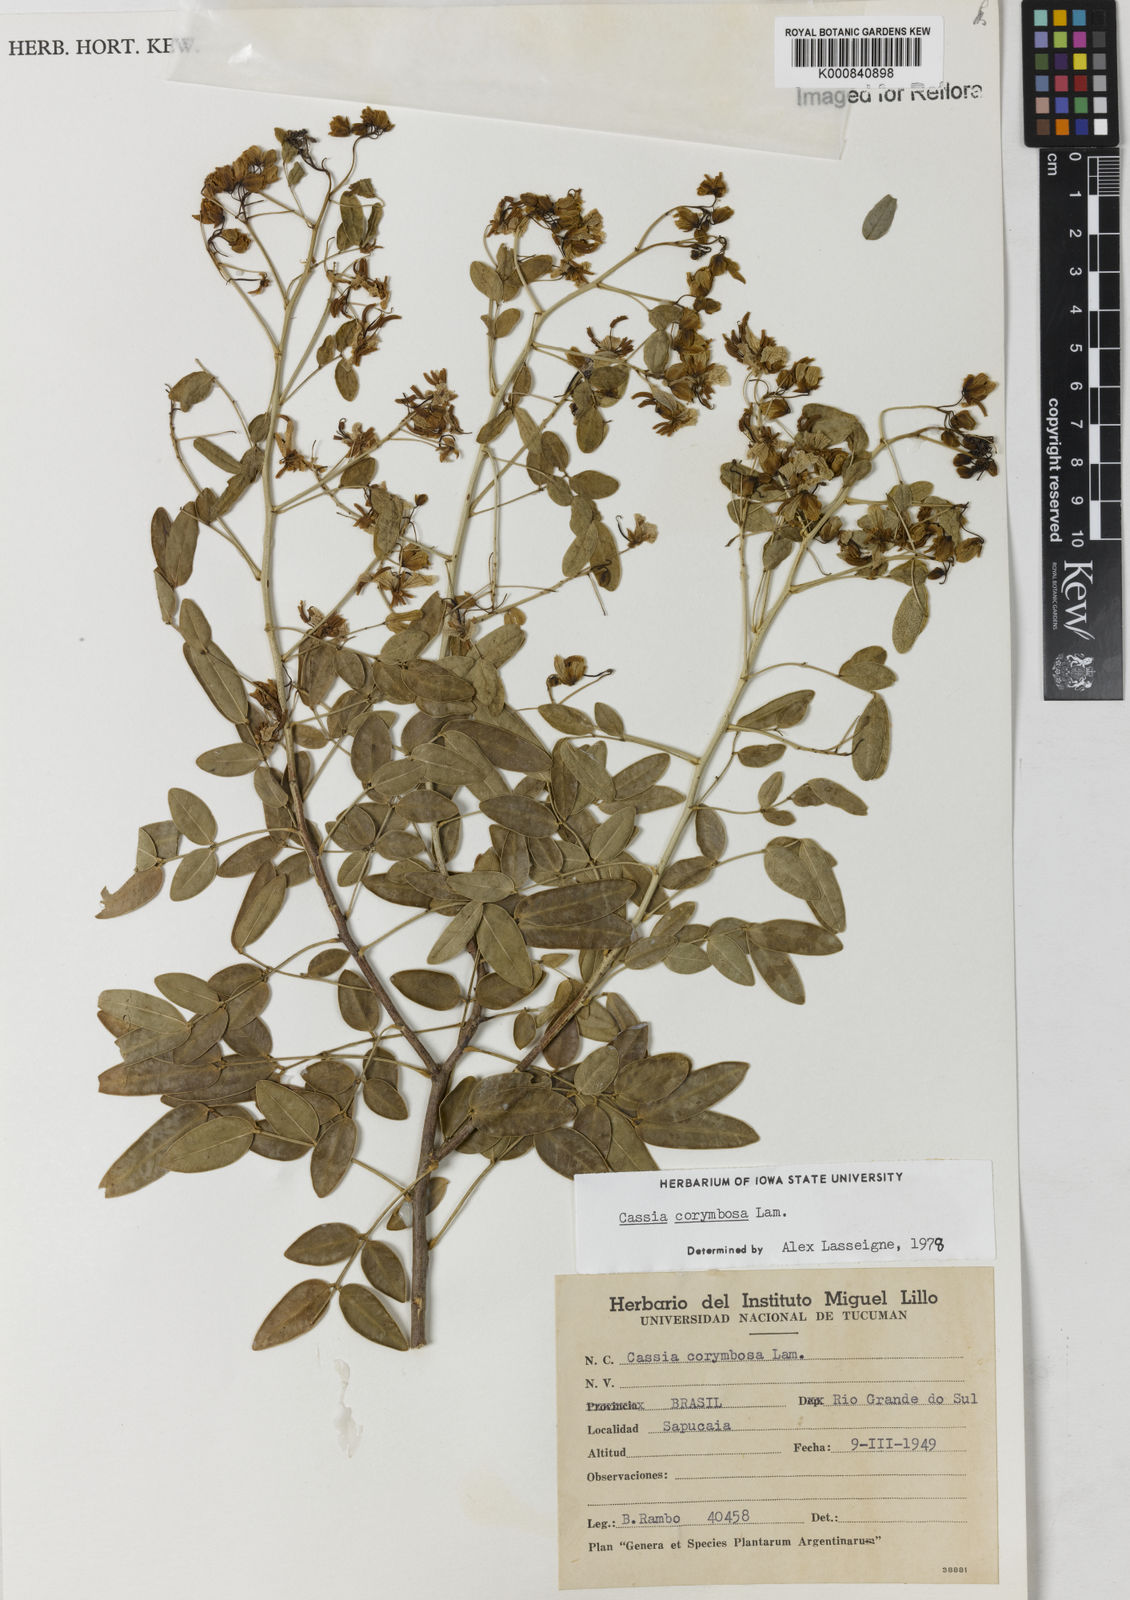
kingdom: Plantae
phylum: Tracheophyta
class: Magnoliopsida
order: Fabales
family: Fabaceae
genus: Senna
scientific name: Senna corymbosa
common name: Argentine senna
